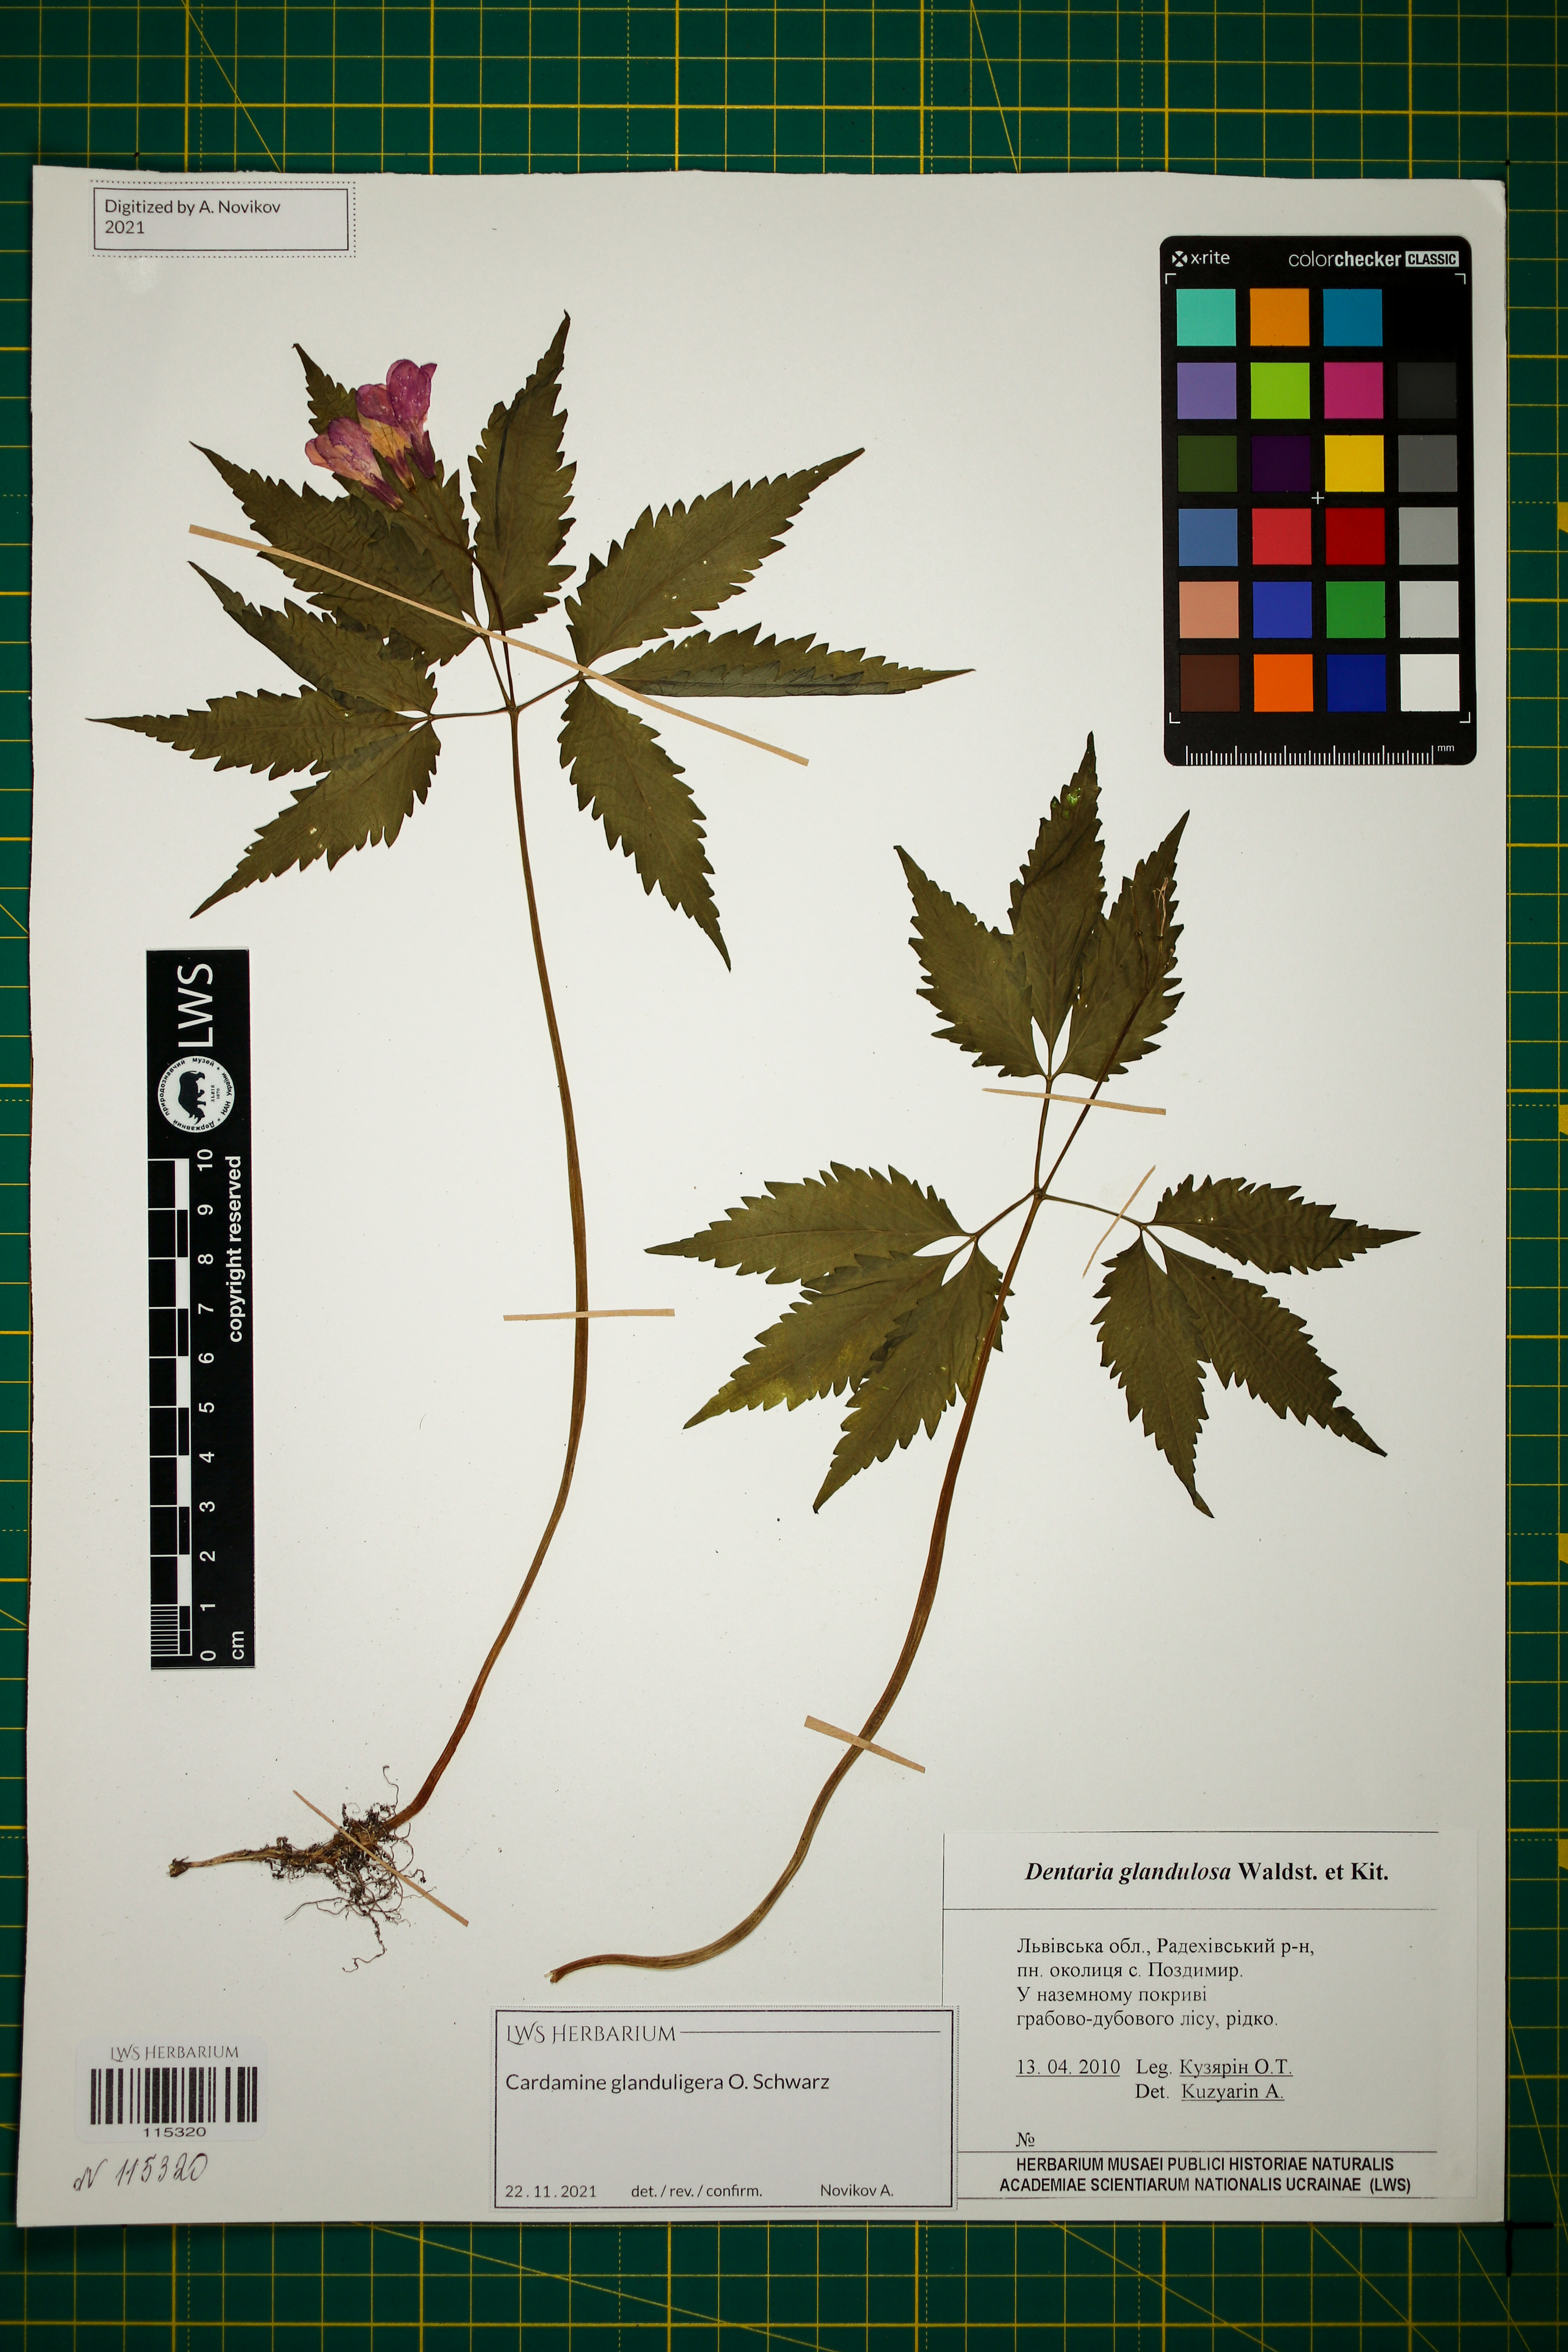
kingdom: Plantae
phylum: Tracheophyta
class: Magnoliopsida
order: Brassicales
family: Brassicaceae
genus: Cardamine
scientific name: Cardamine glanduligera
